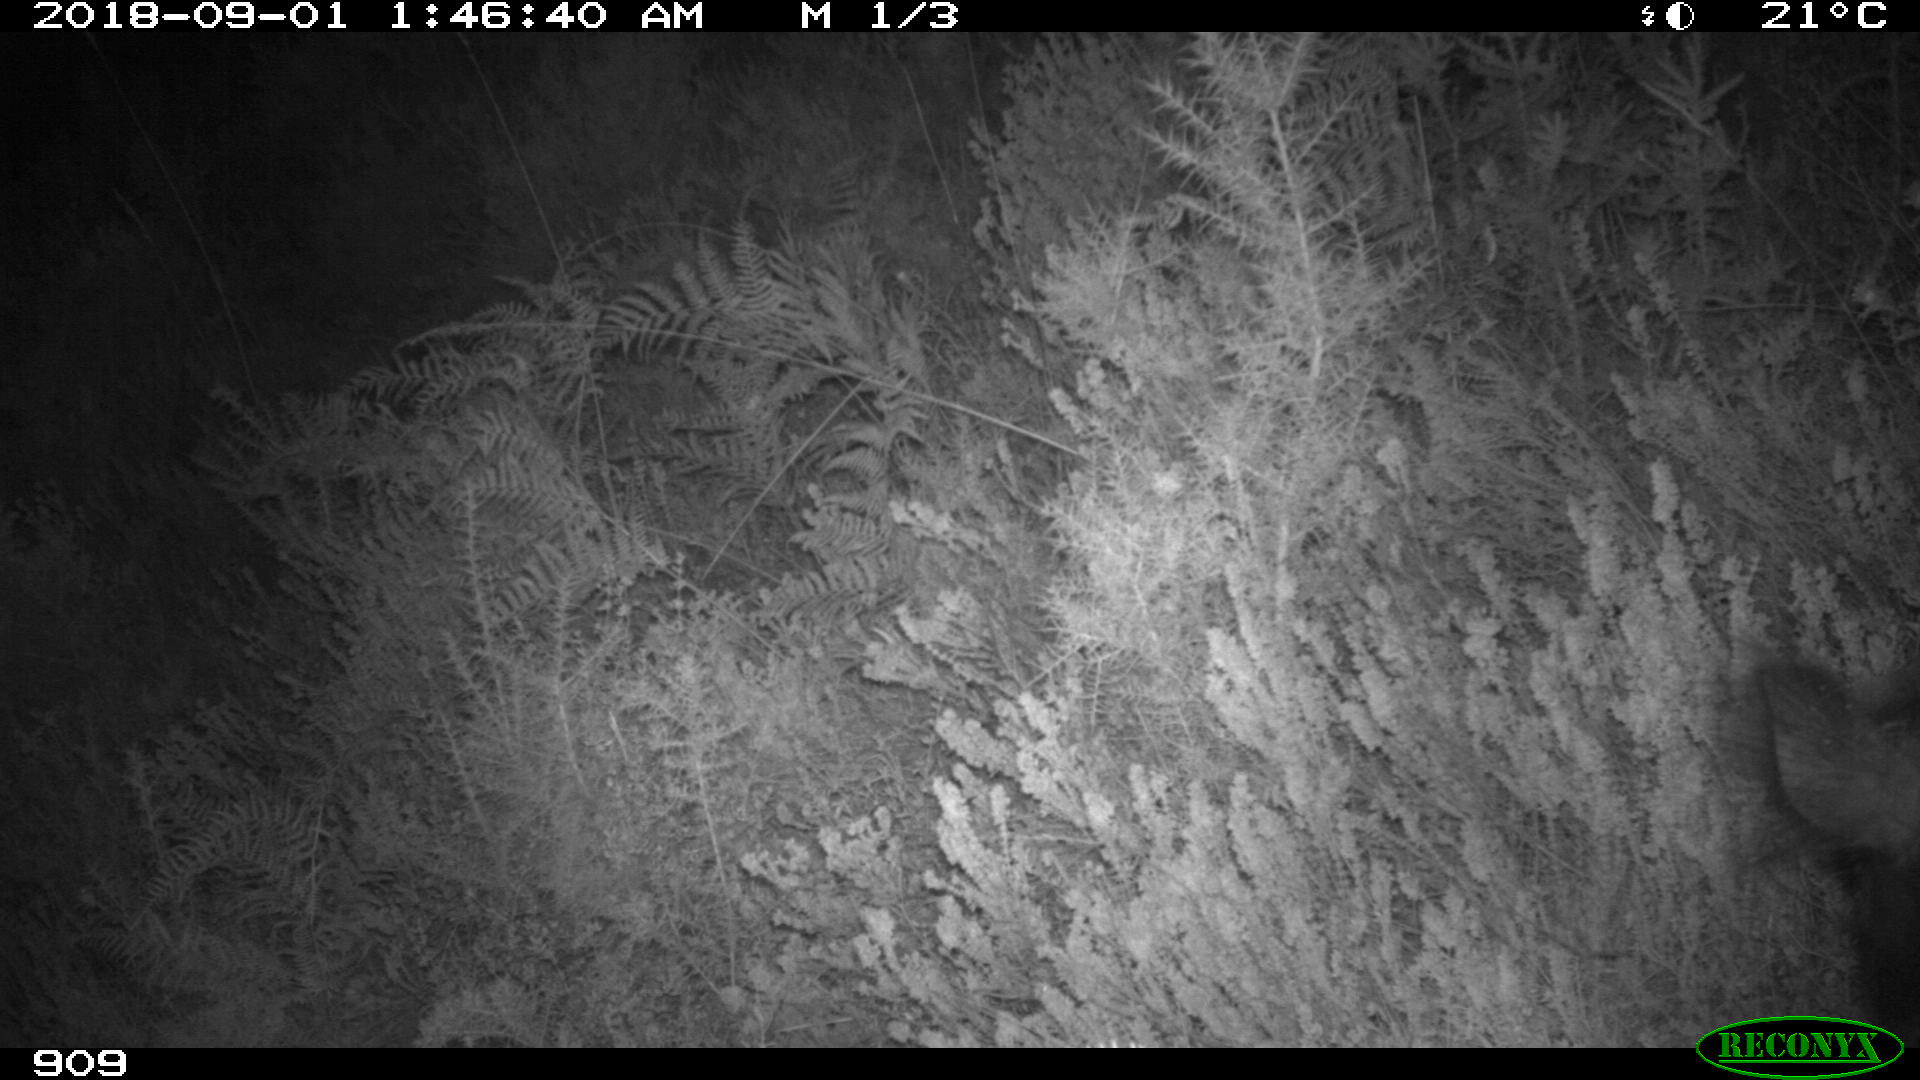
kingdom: Animalia
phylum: Chordata
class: Mammalia
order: Artiodactyla
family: Suidae
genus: Sus
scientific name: Sus scrofa
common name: Wild boar
